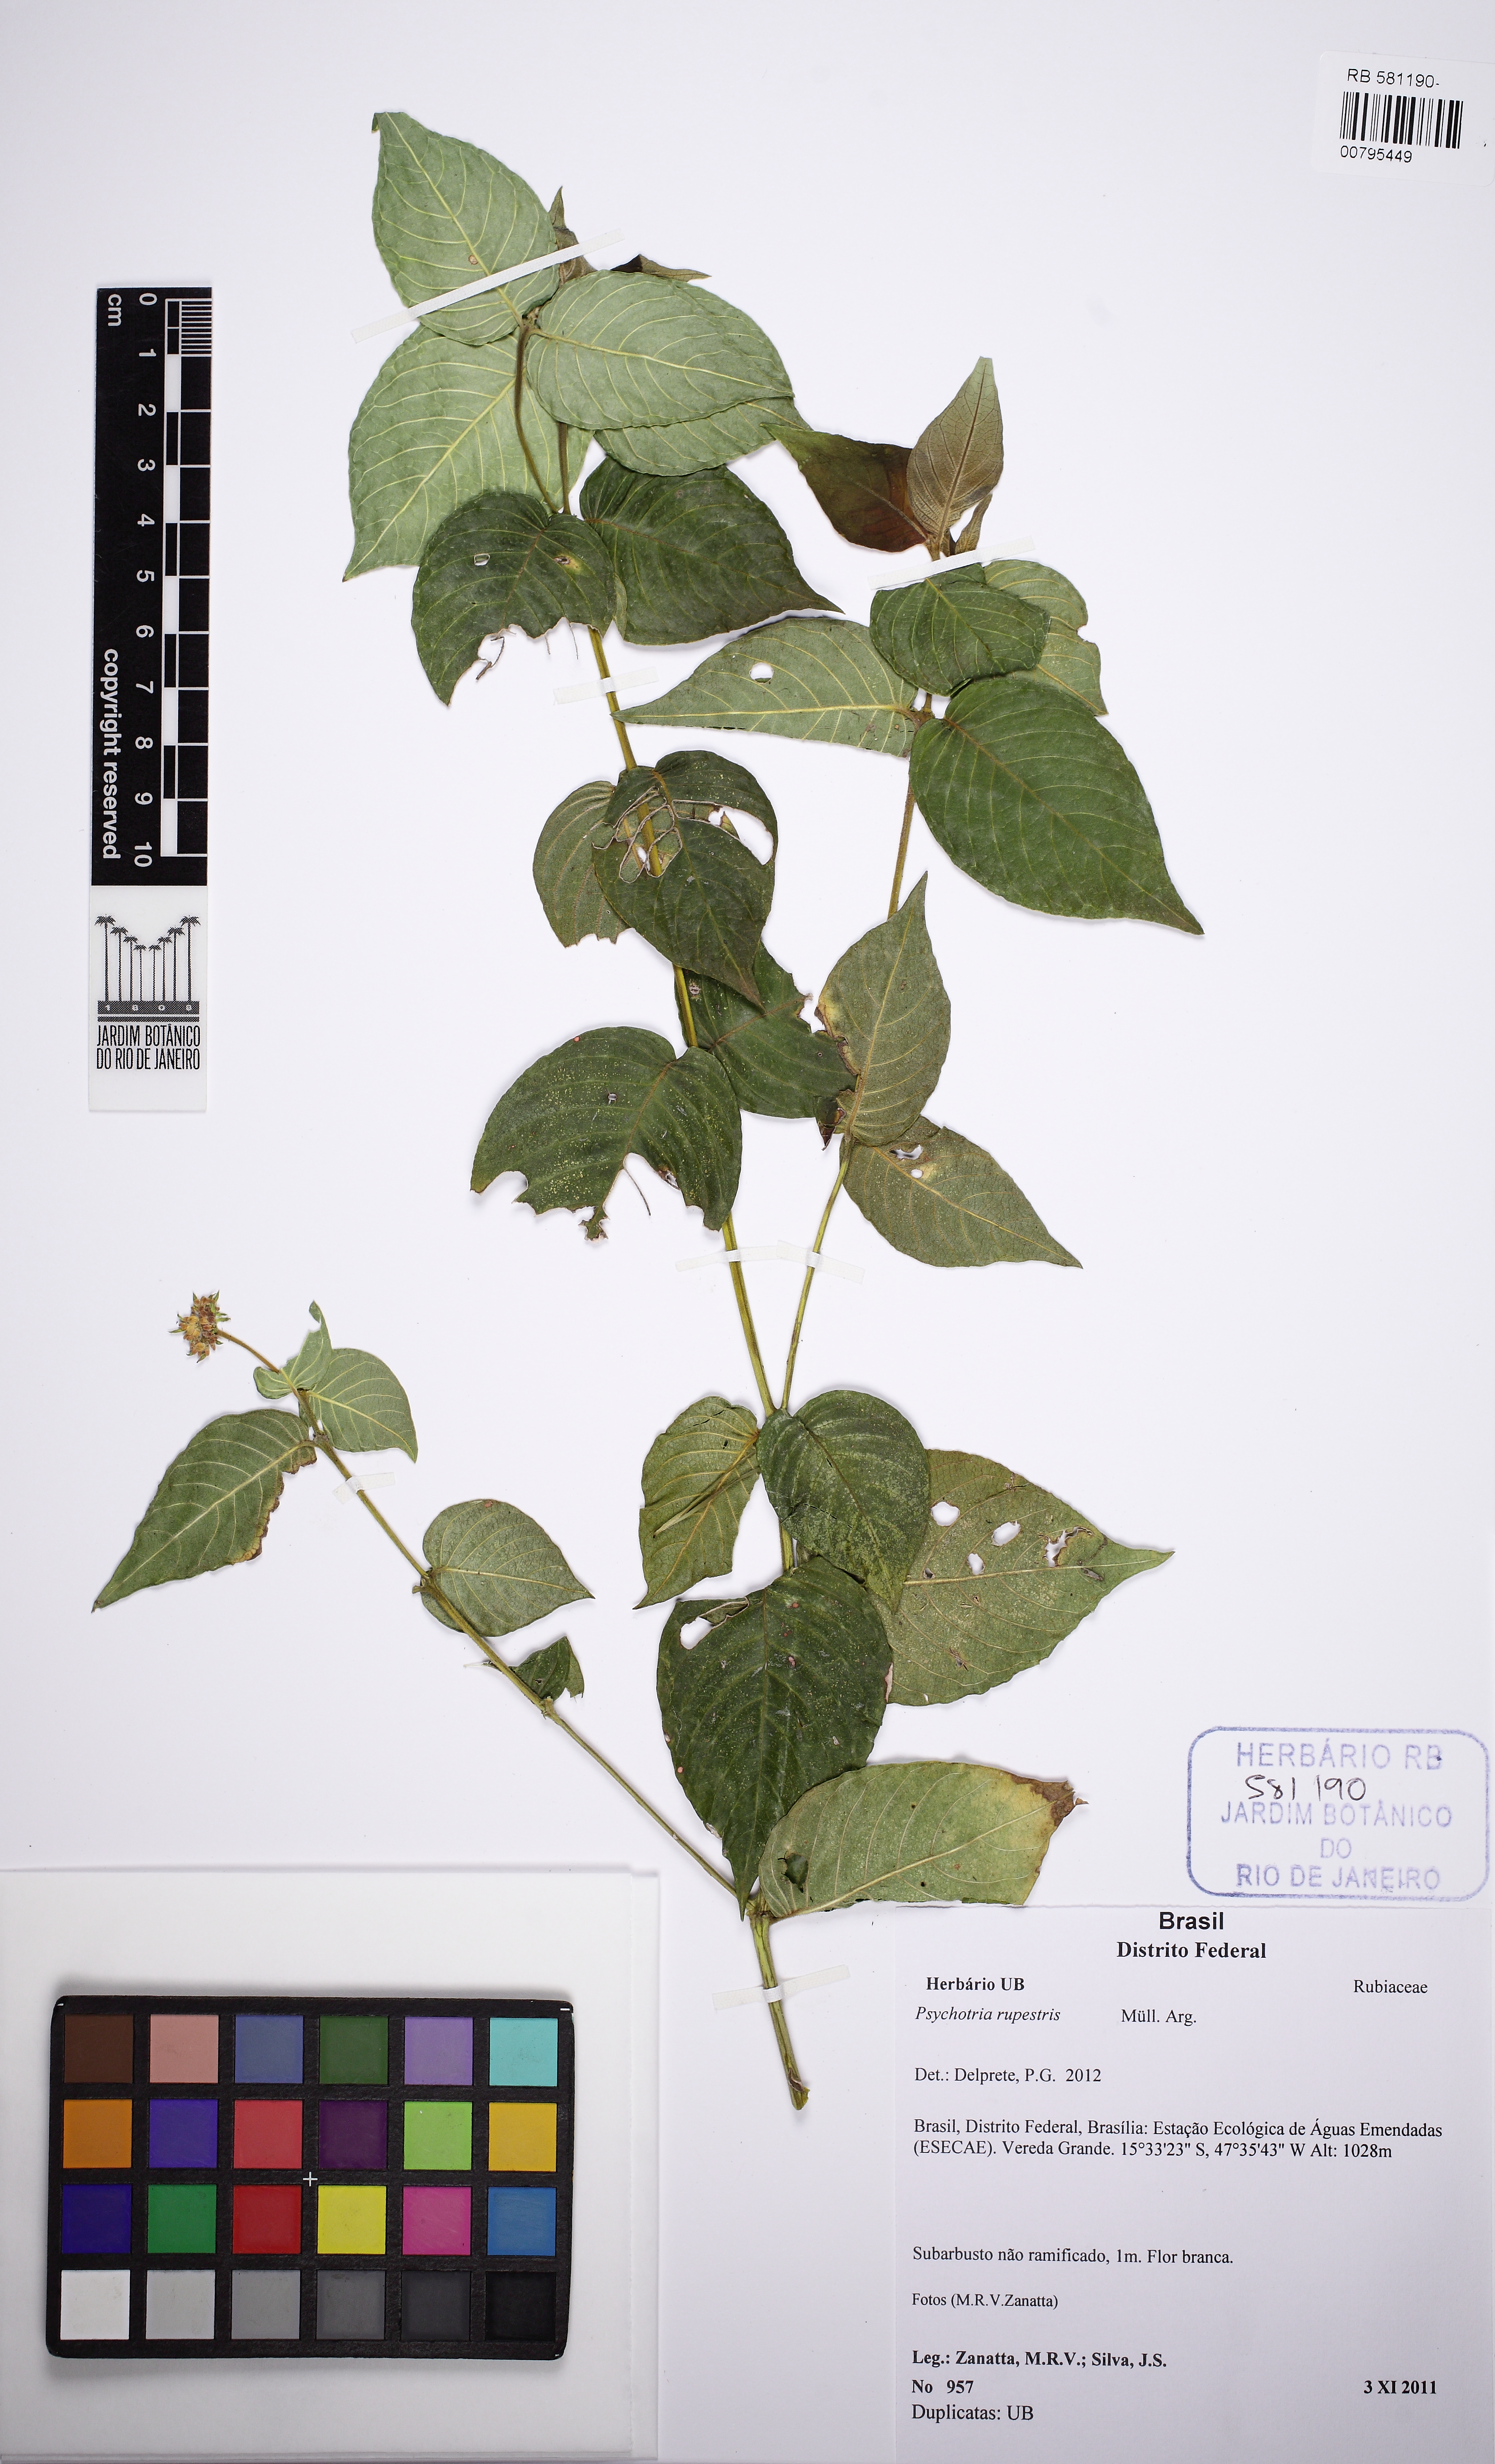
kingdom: Plantae
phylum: Tracheophyta
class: Magnoliopsida
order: Gentianales
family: Rubiaceae
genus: Psychotria
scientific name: Psychotria rupestris
